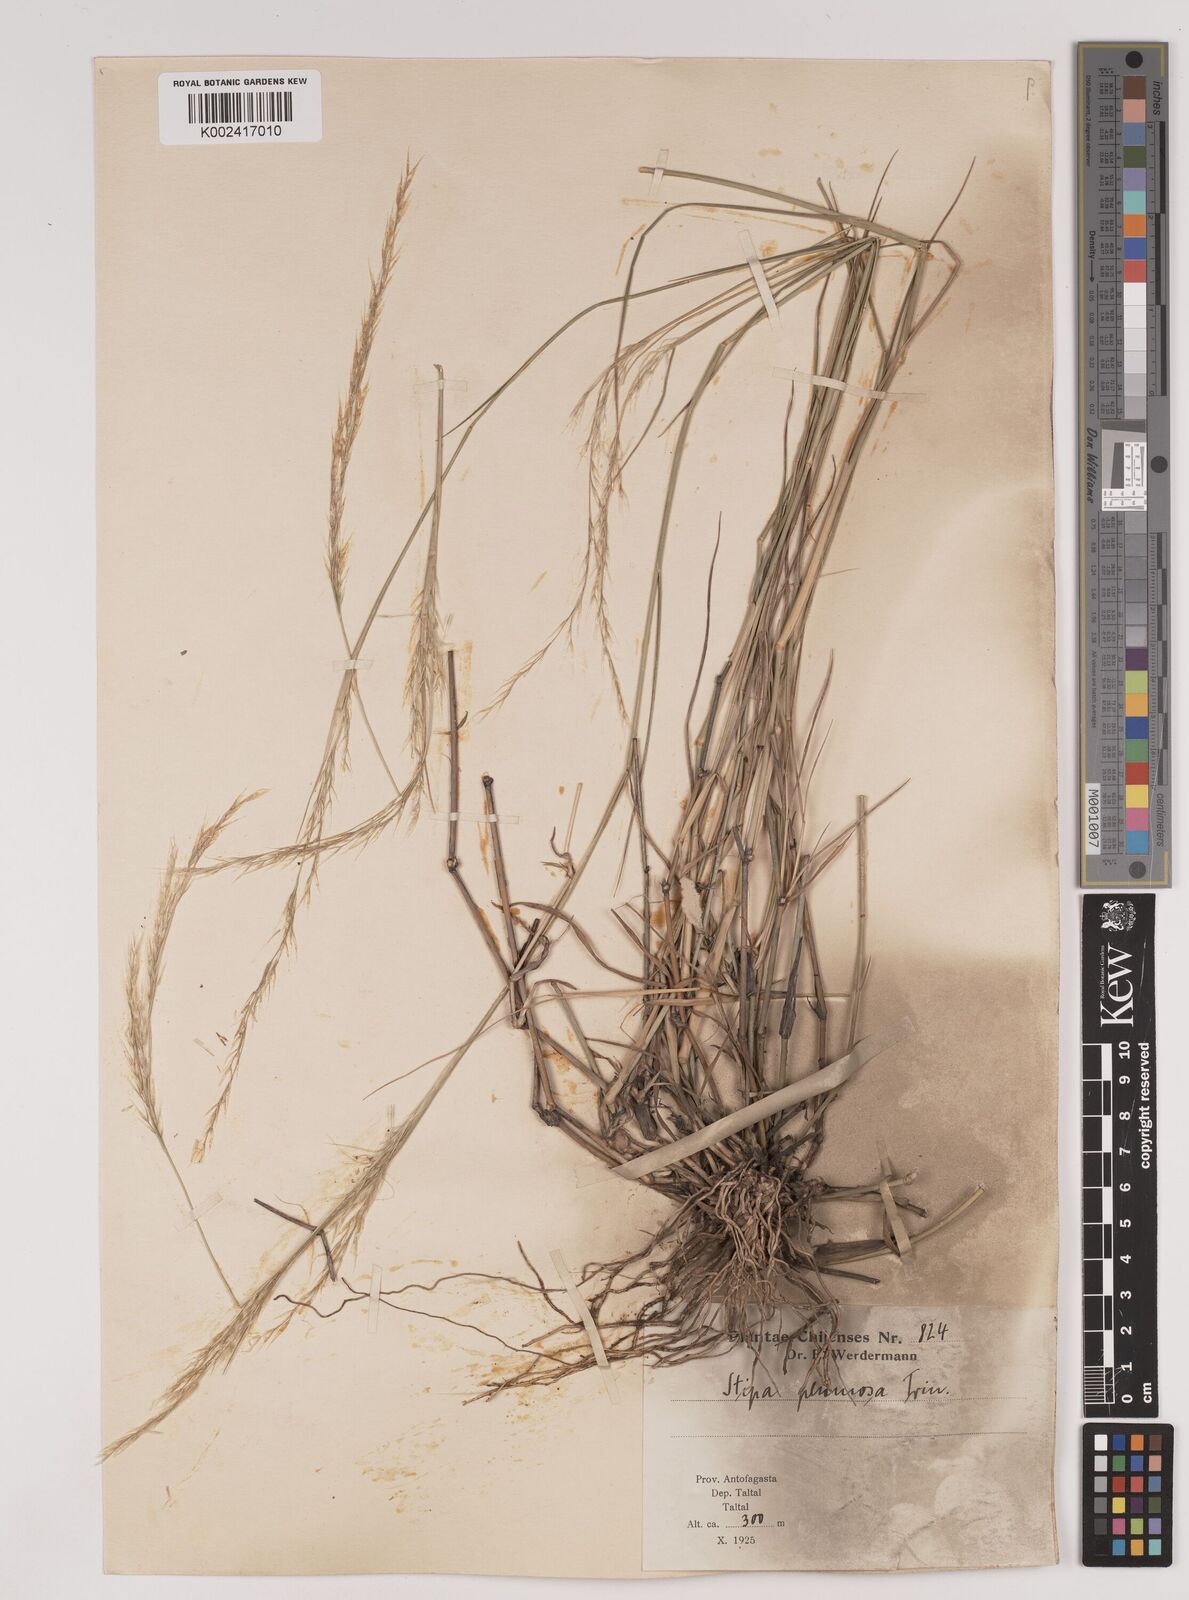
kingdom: Plantae
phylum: Tracheophyta
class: Liliopsida
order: Poales
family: Poaceae
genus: Stipa
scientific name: Stipa plumosa
